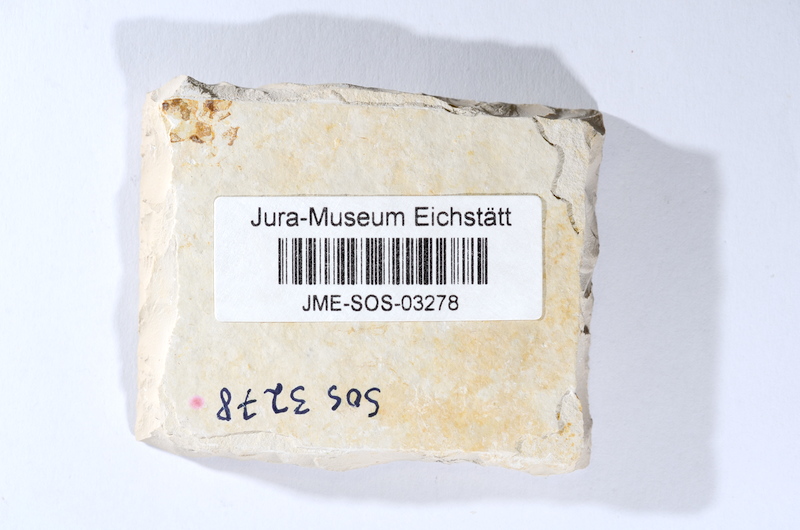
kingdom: Animalia
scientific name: Animalia
